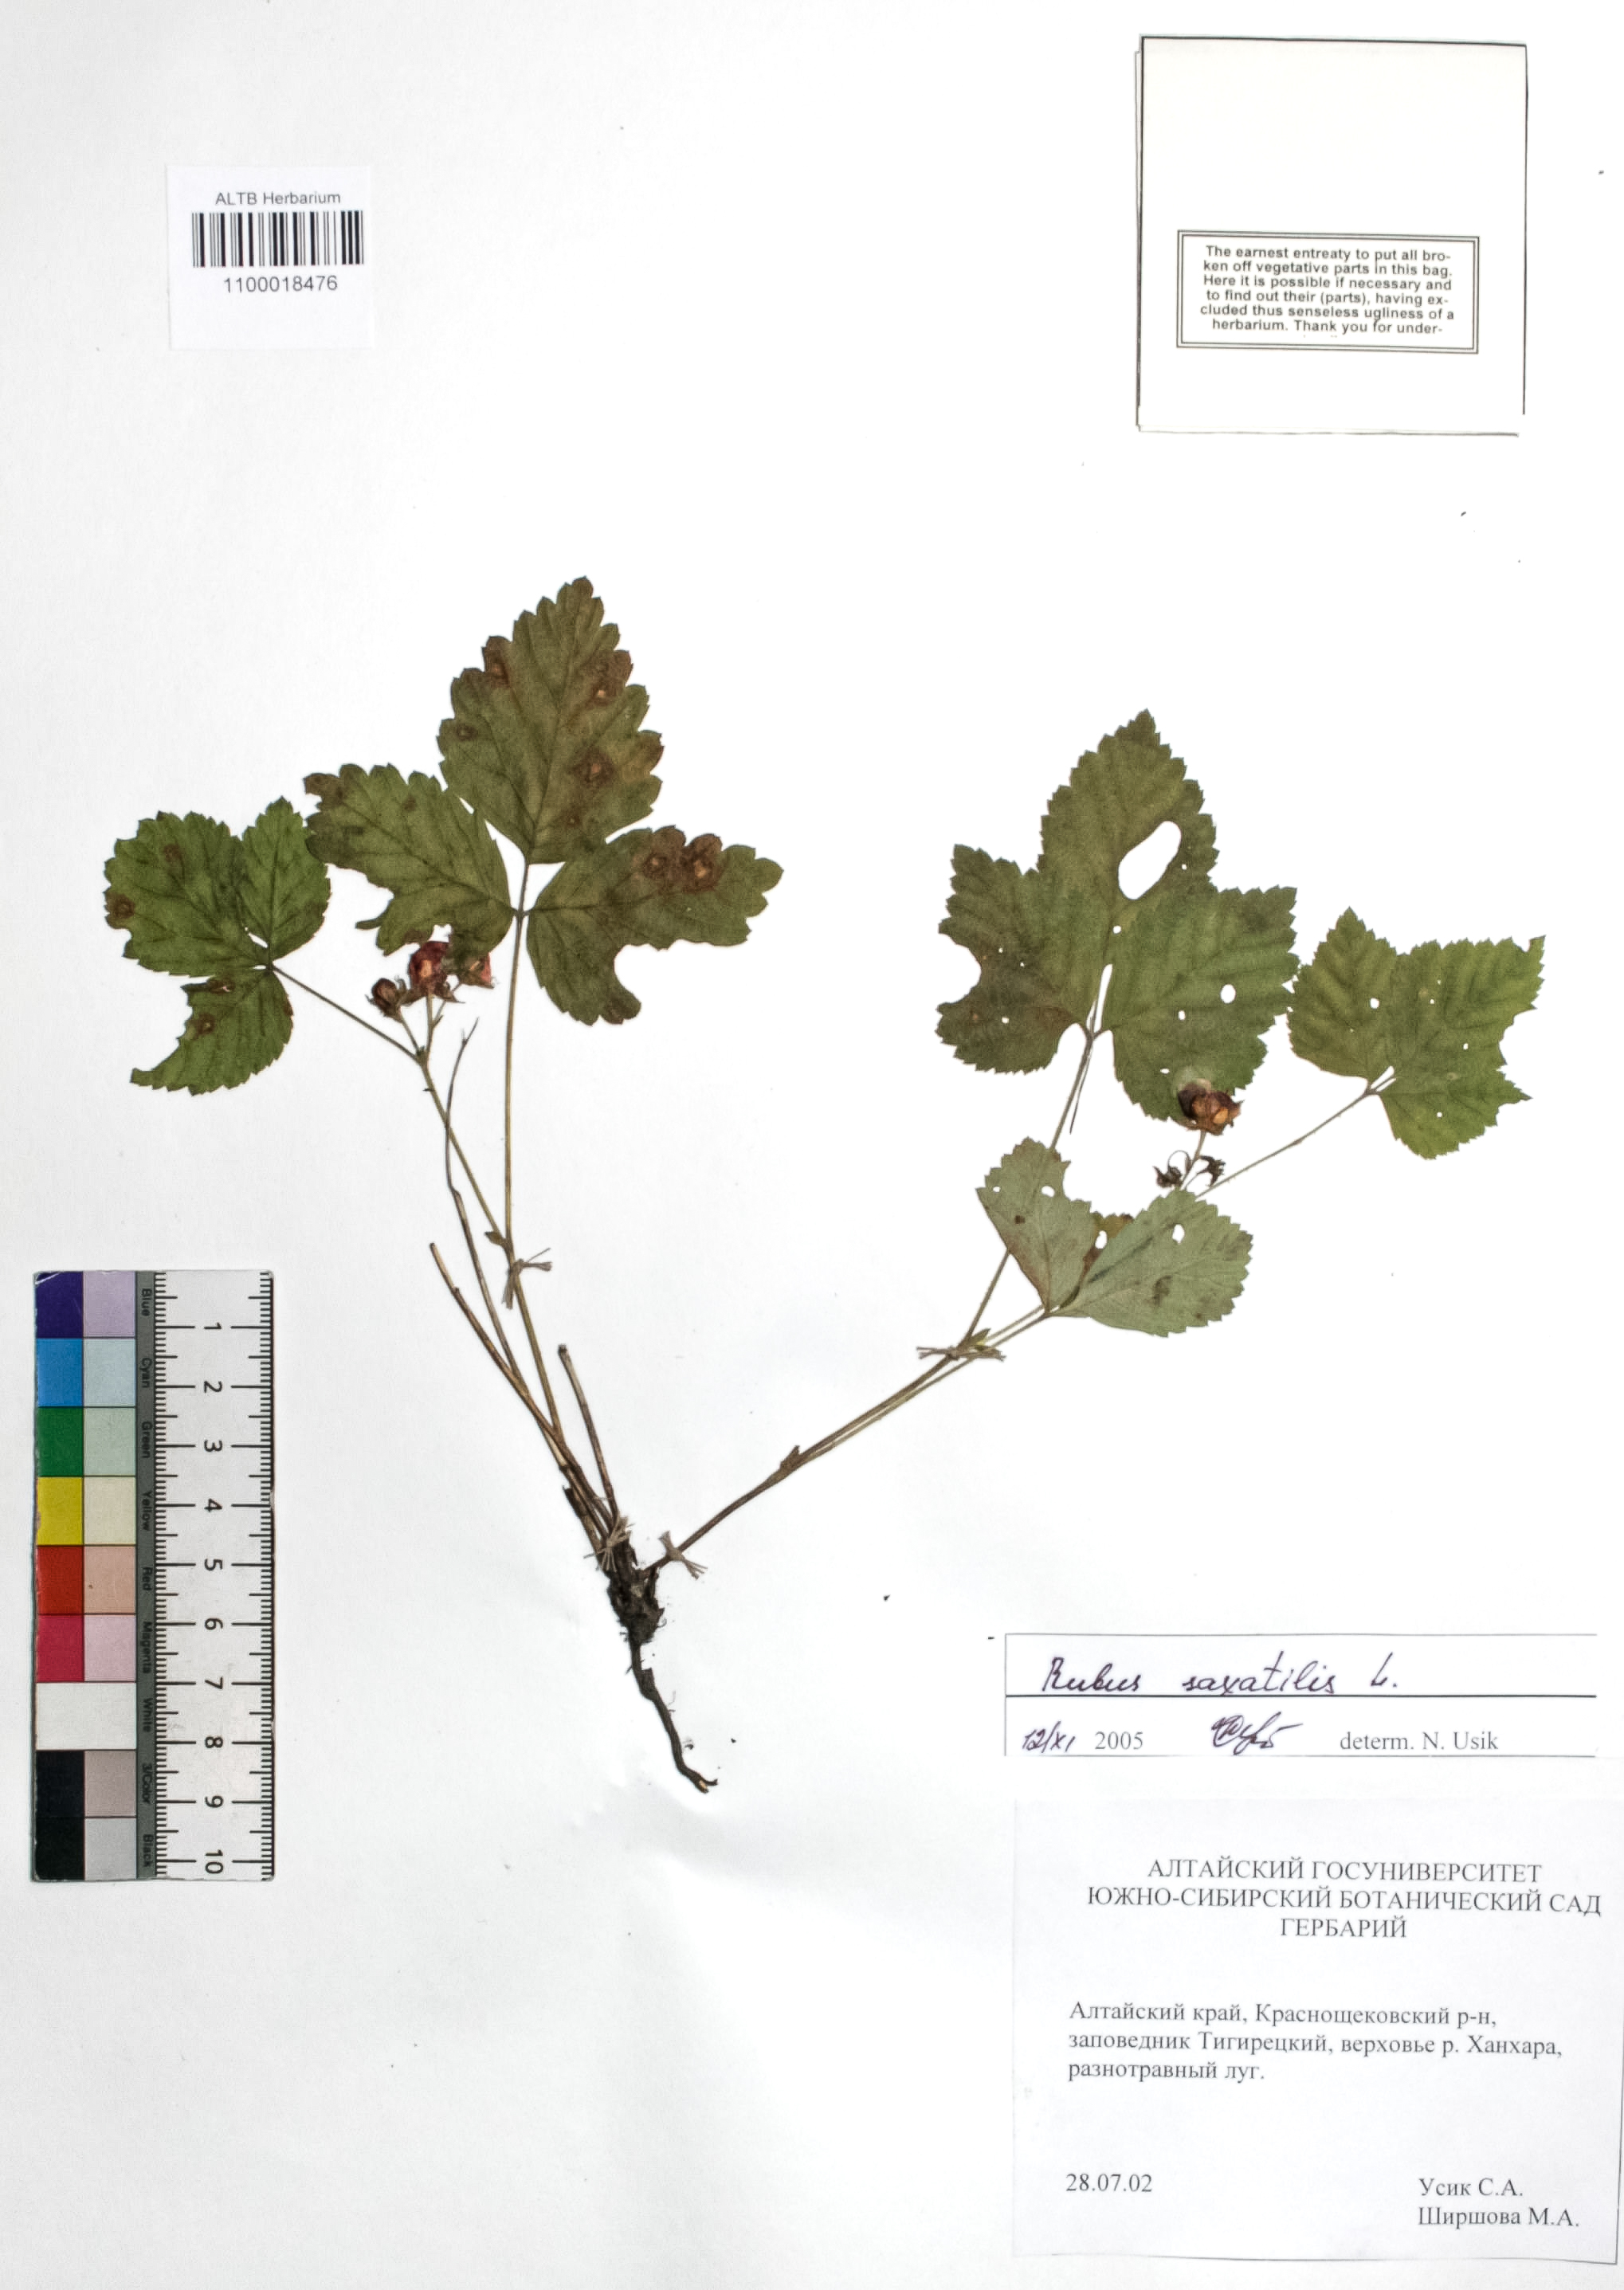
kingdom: Plantae
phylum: Tracheophyta
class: Magnoliopsida
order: Rosales
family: Rosaceae
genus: Rubus
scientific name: Rubus saxatilis
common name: Stone bramble
